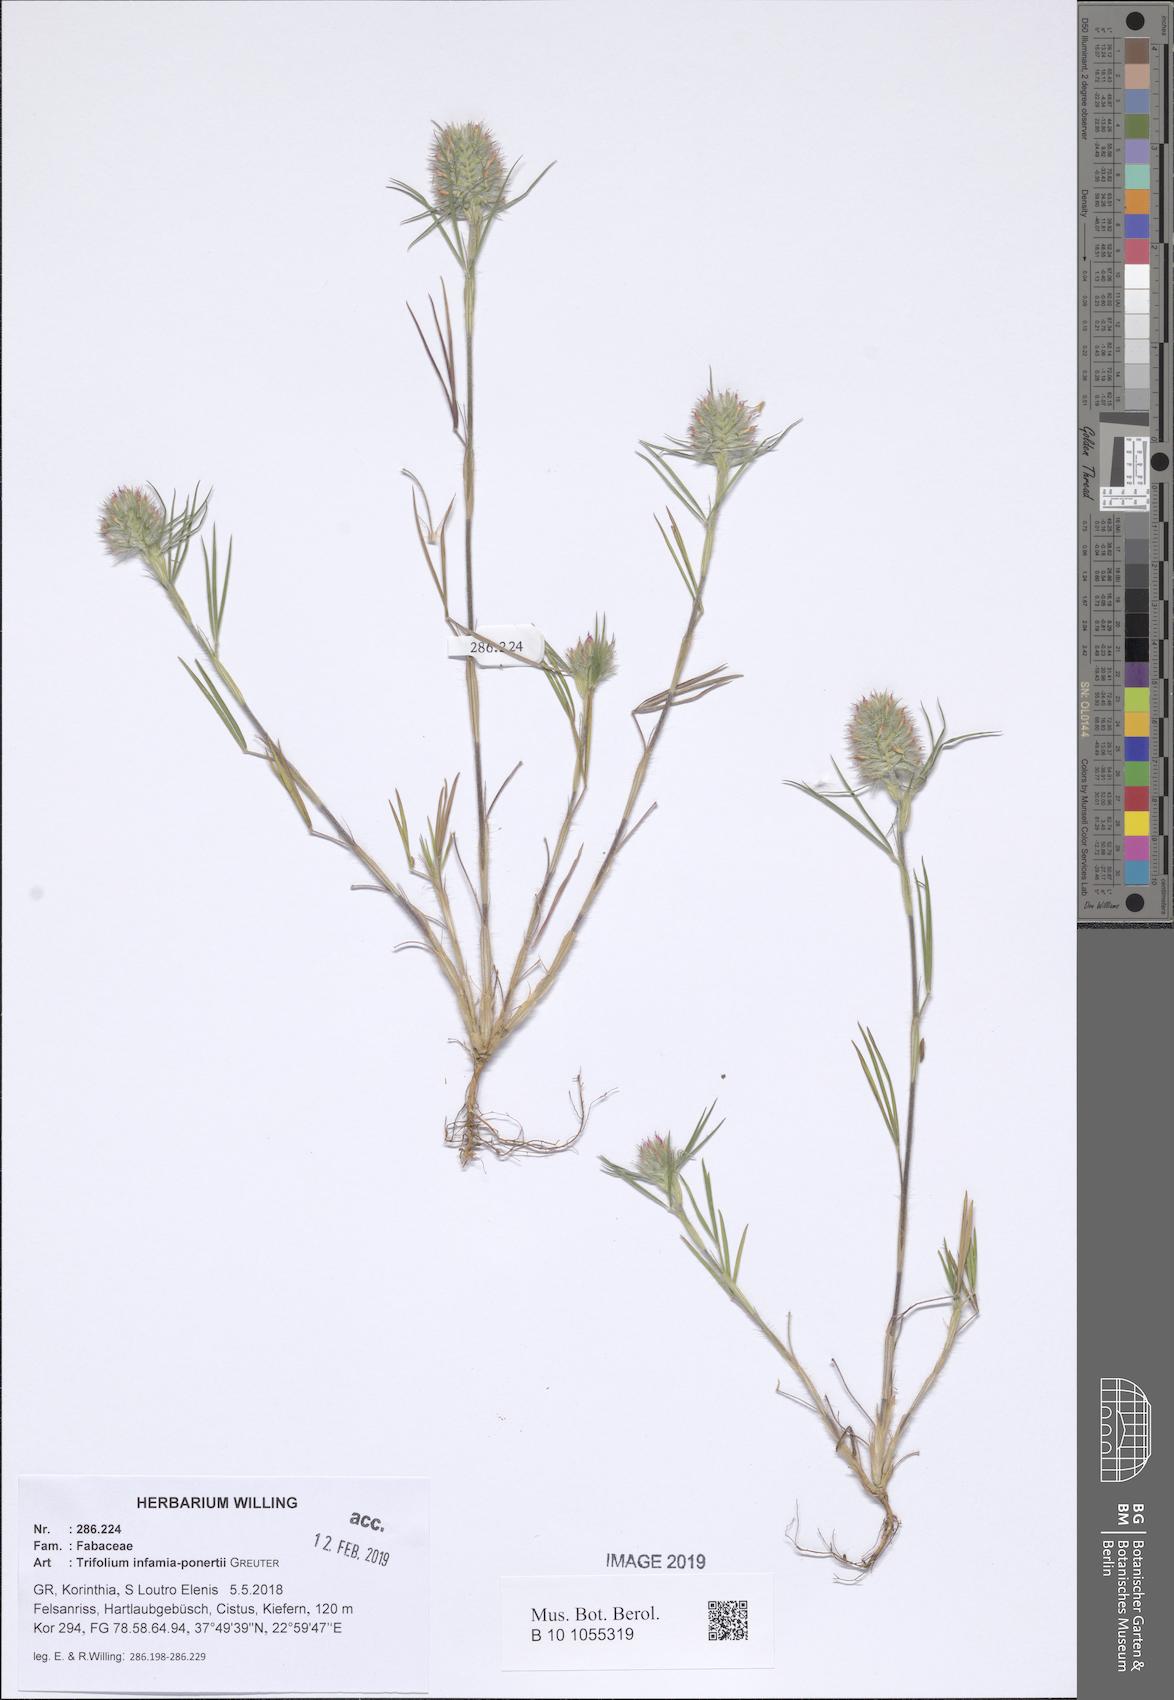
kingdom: Plantae
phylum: Tracheophyta
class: Magnoliopsida
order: Fabales
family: Fabaceae
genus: Trifolium
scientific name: Trifolium infamia-ponertii
